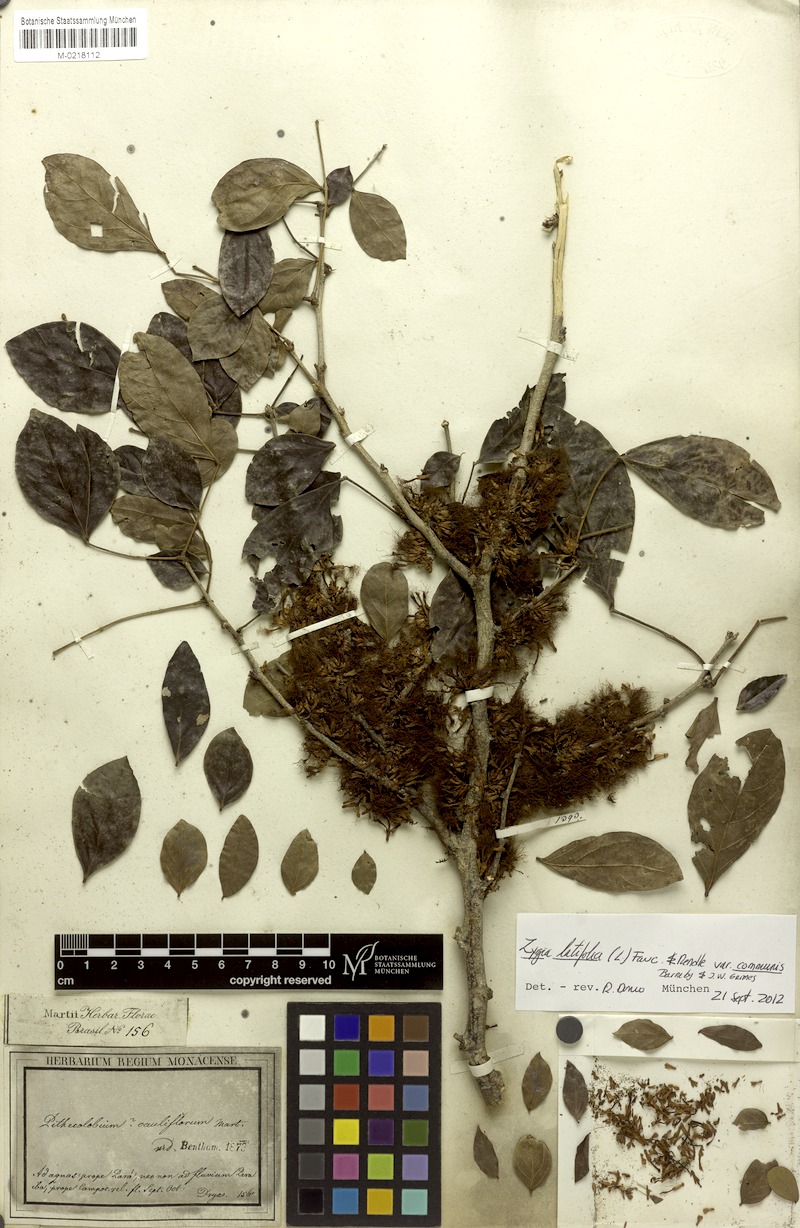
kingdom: Plantae
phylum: Tracheophyta
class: Magnoliopsida
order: Fabales
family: Fabaceae
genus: Zygia
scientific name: Zygia cauliflora
